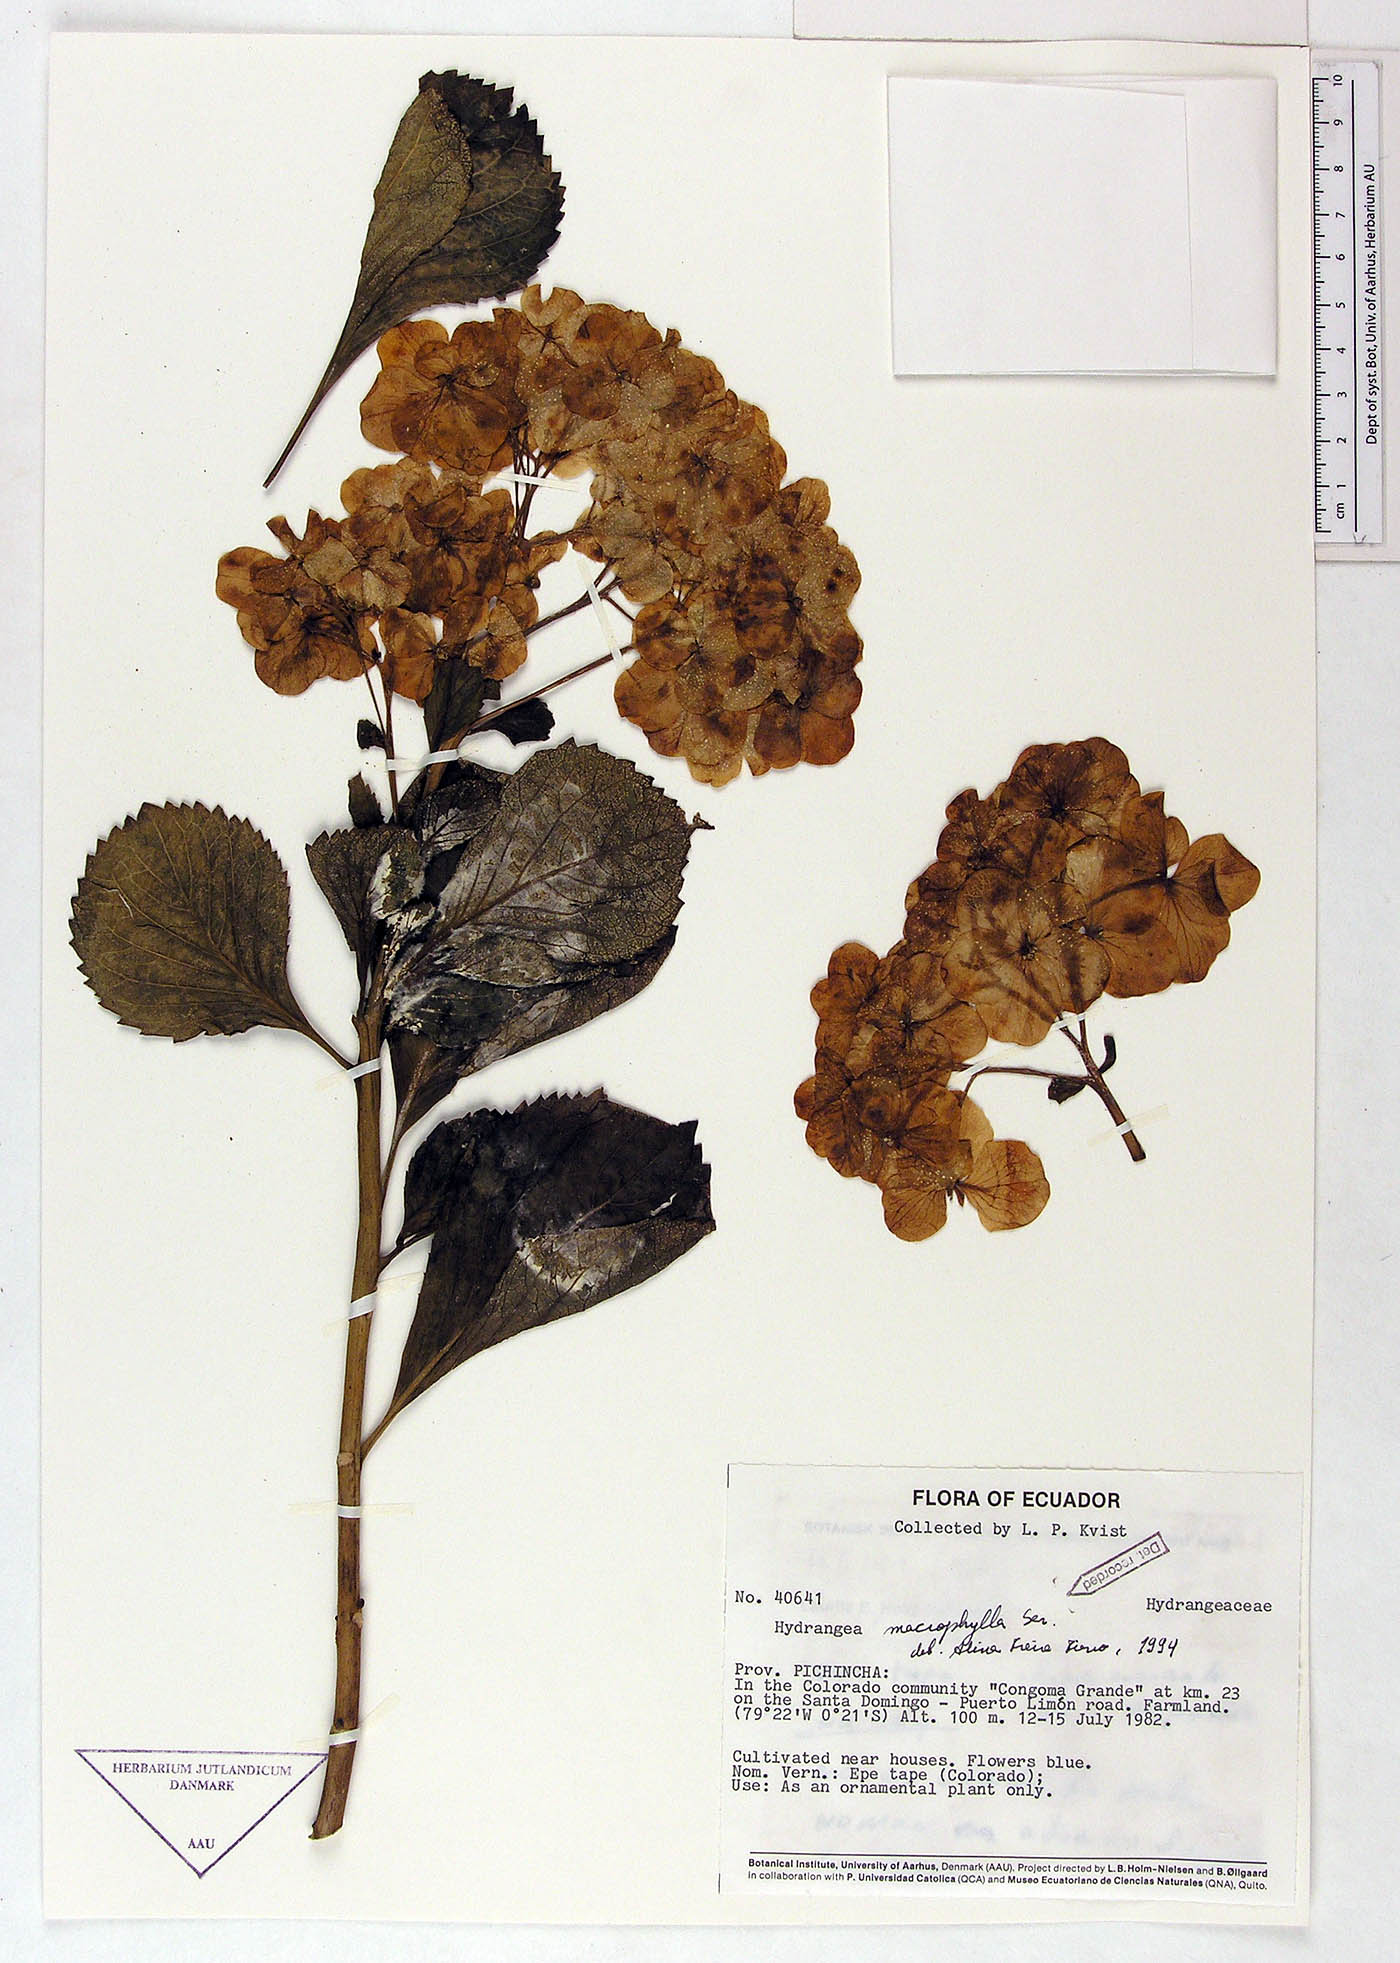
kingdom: Plantae
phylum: Tracheophyta
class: Magnoliopsida
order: Cornales
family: Hydrangeaceae
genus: Hydrangea
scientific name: Hydrangea macrophylla
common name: Hydrangea
